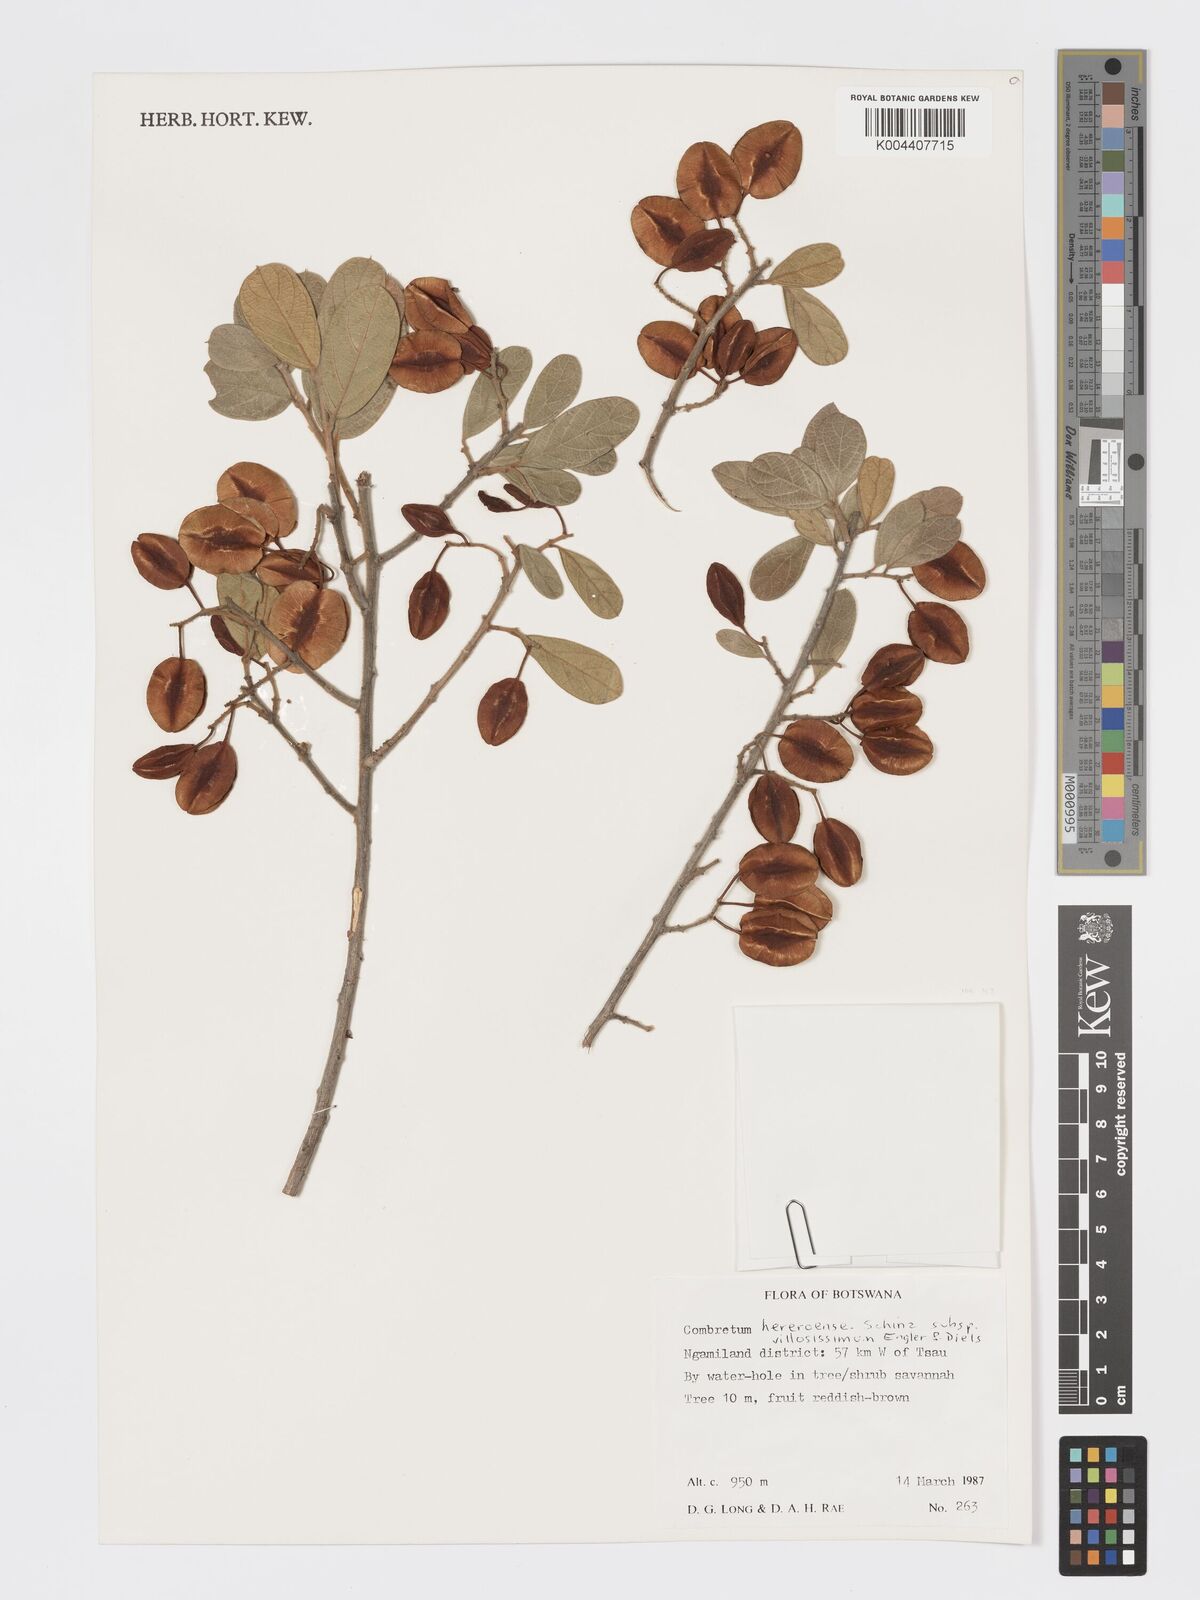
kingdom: Plantae
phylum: Tracheophyta
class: Magnoliopsida
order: Myrtales
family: Combretaceae
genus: Combretum
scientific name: Combretum hereroense
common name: Russet bushwillow
